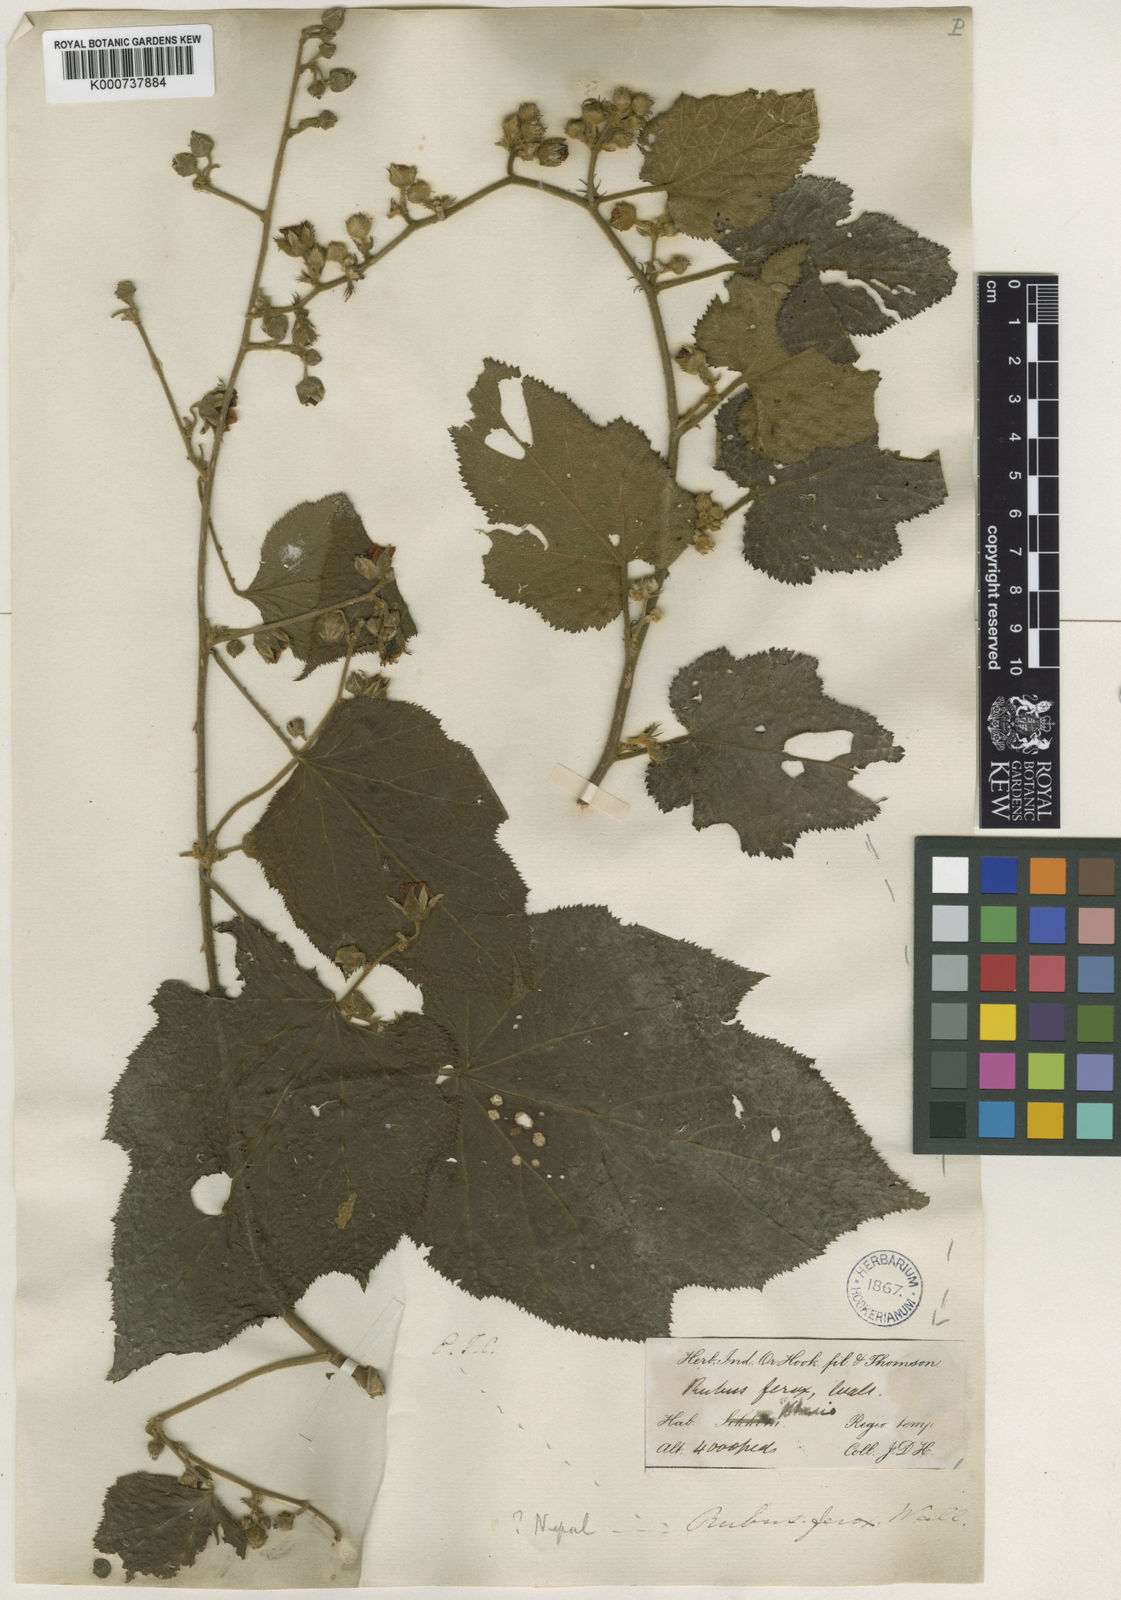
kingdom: Plantae
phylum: Tracheophyta
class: Magnoliopsida
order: Rosales
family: Rosaceae
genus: Rubus
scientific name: Rubus
